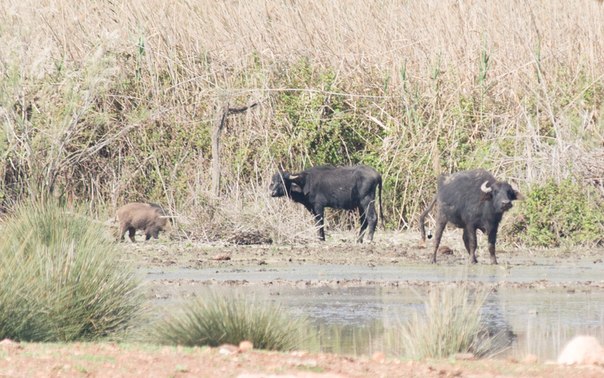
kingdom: Animalia
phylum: Chordata
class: Mammalia
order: Artiodactyla
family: Suidae
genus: Sus
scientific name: Sus scrofa
